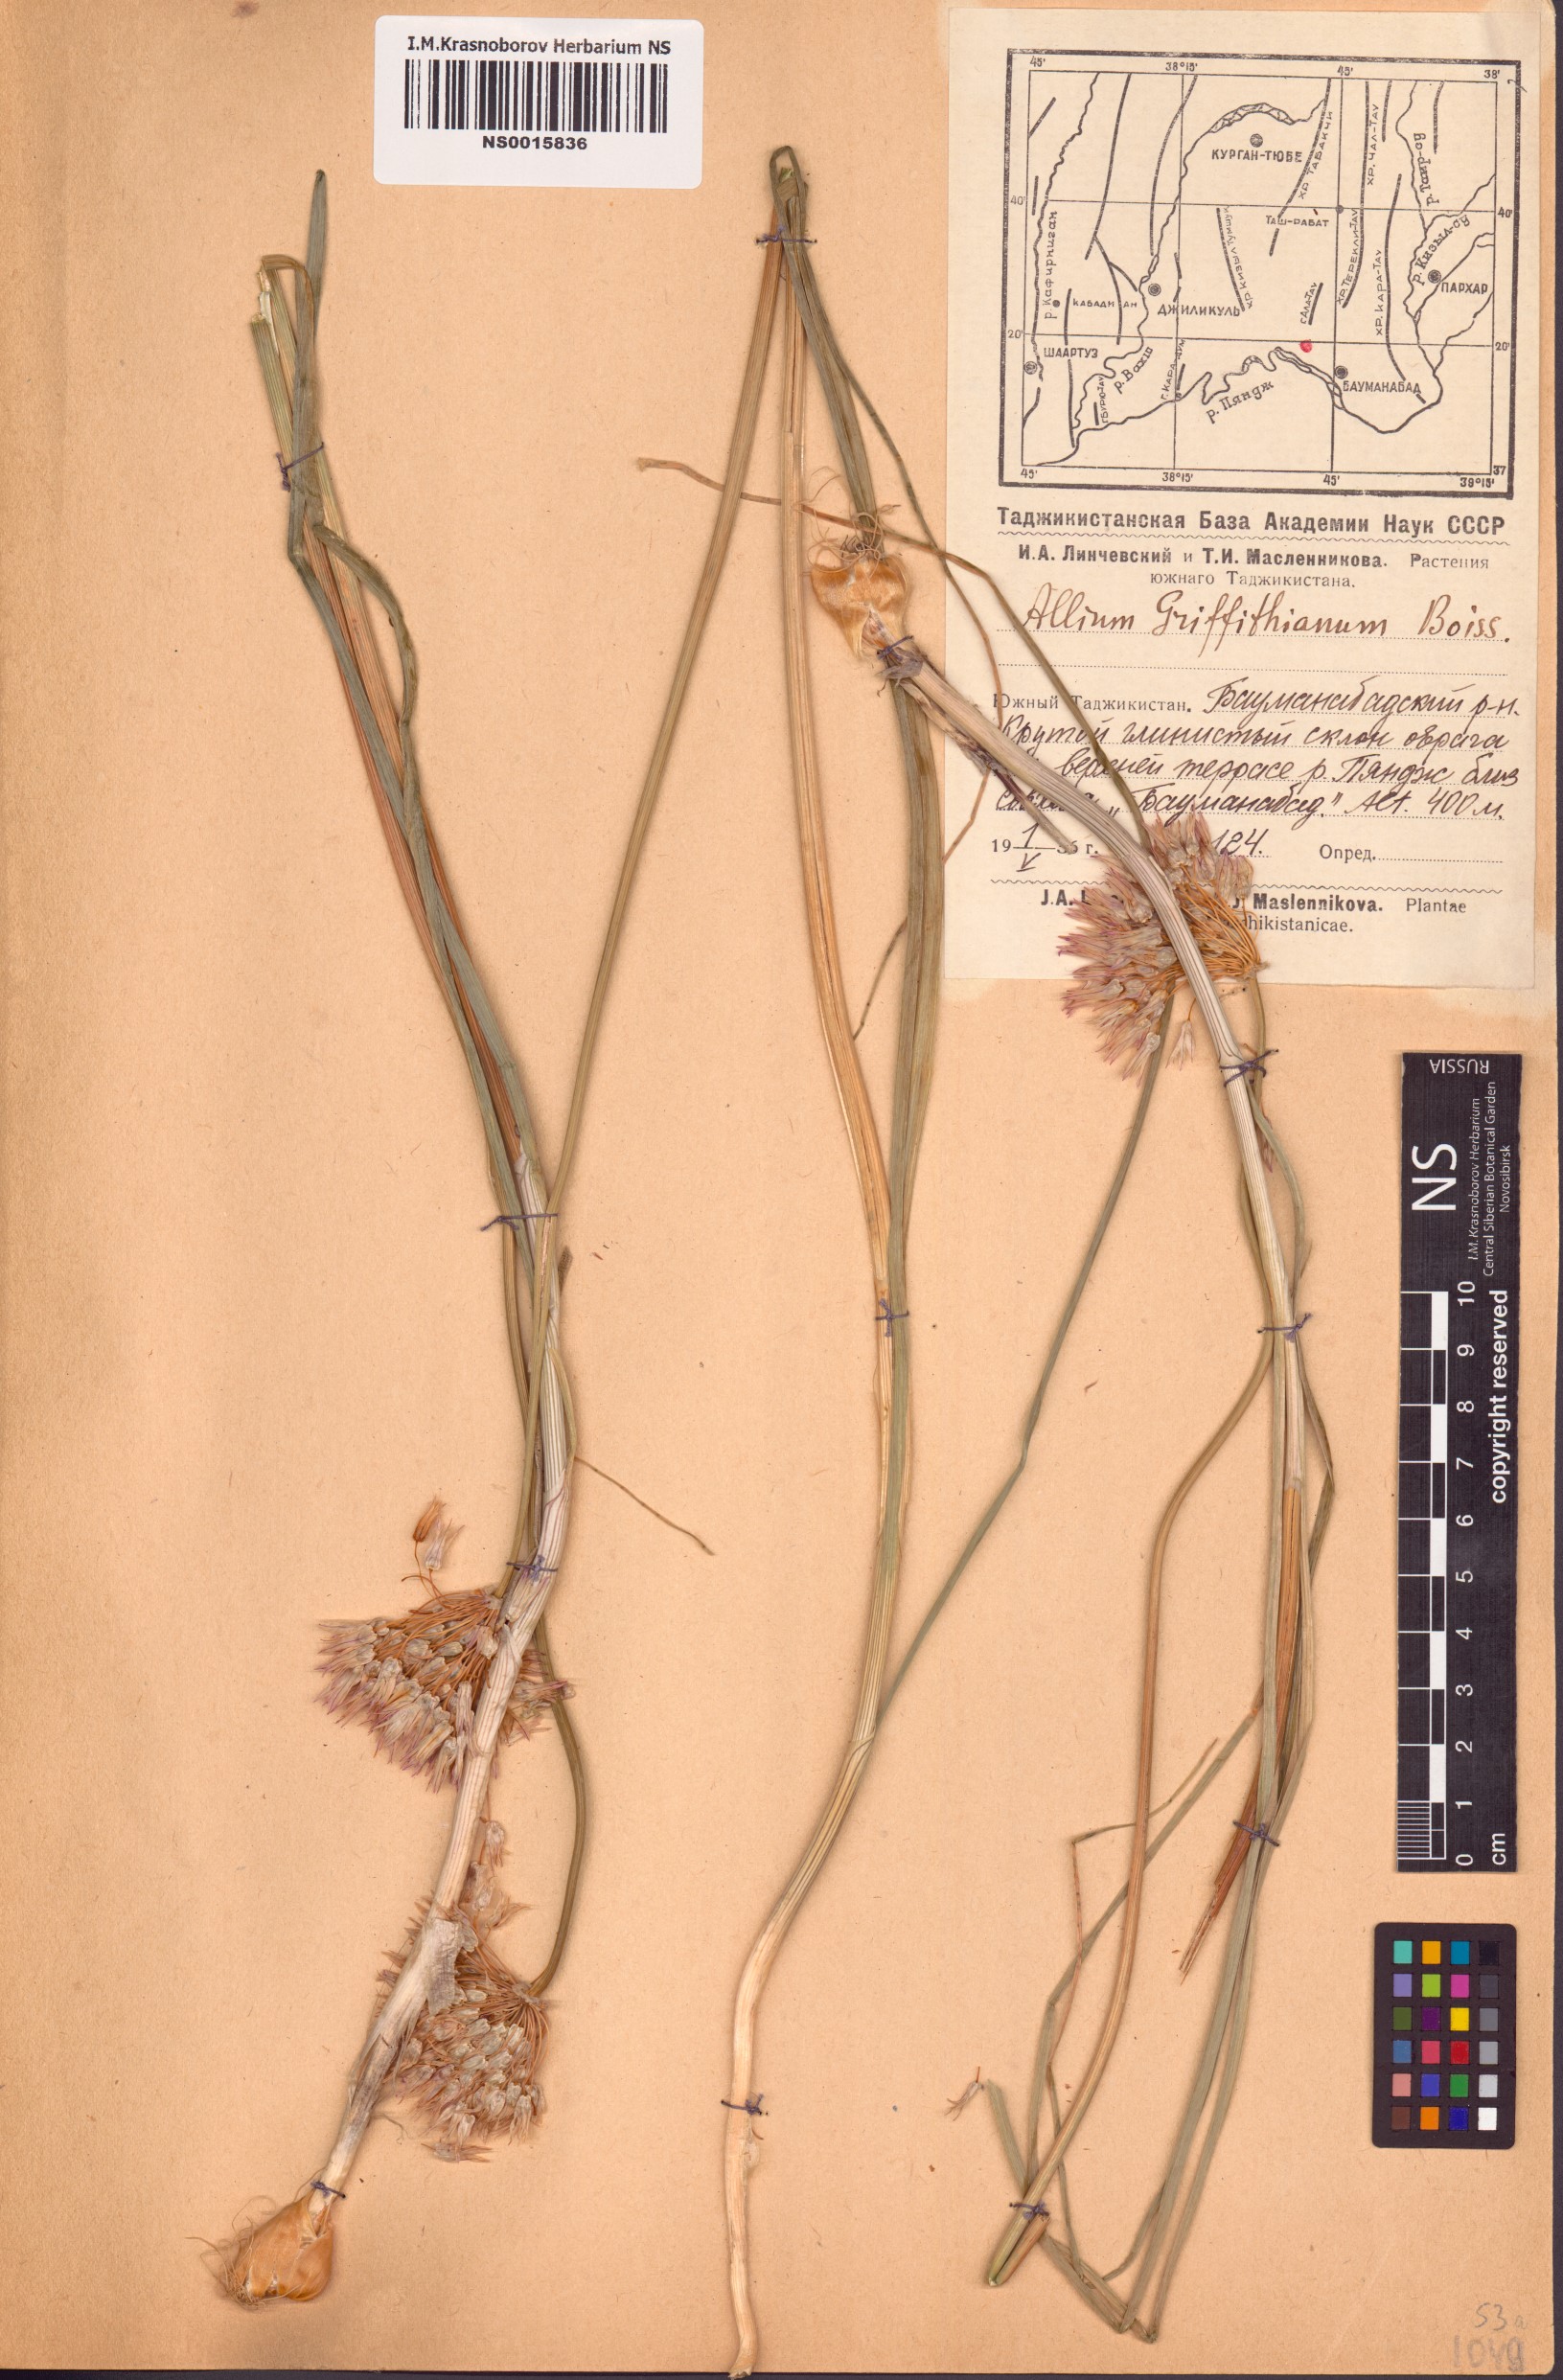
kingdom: Plantae
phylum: Tracheophyta
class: Liliopsida
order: Asparagales
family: Amaryllidaceae
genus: Allium
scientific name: Allium griffithianum
